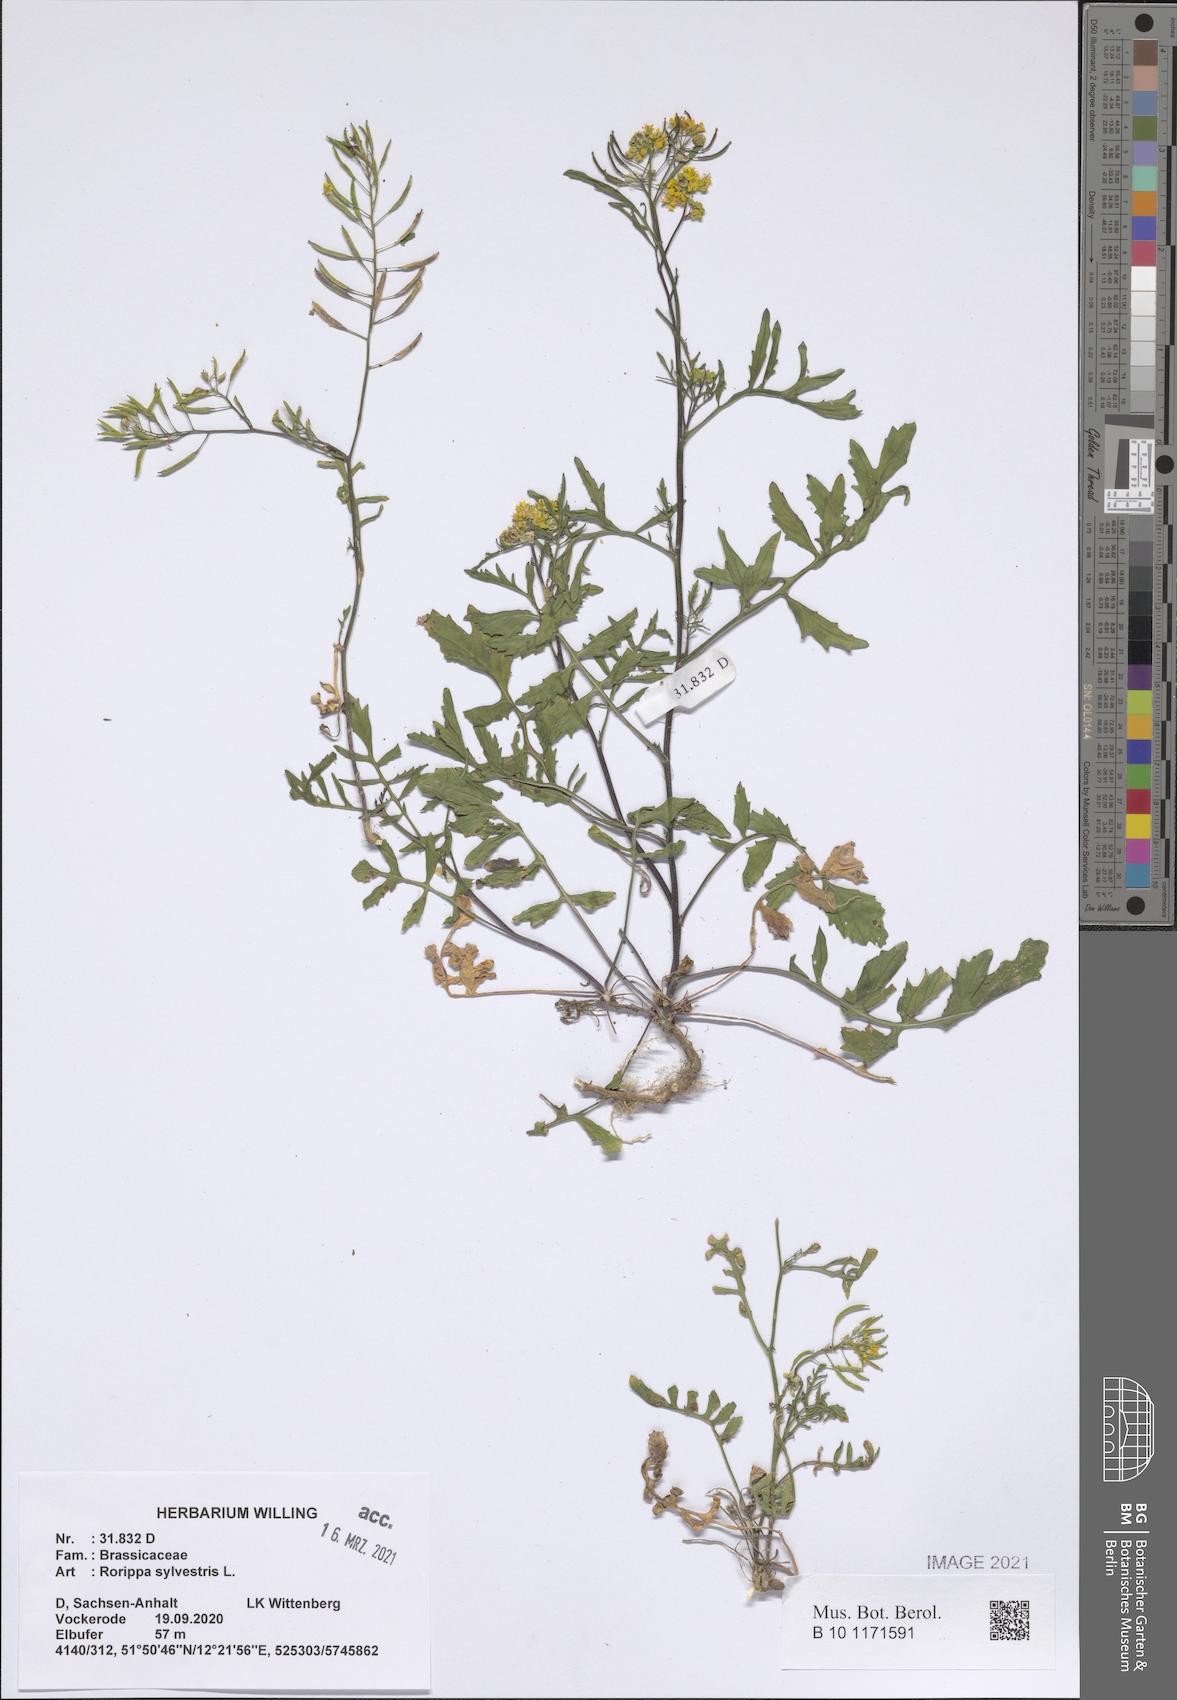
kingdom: Plantae
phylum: Tracheophyta
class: Magnoliopsida
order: Brassicales
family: Brassicaceae
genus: Rorippa
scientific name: Rorippa sylvestris
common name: Creeping yellowcress
